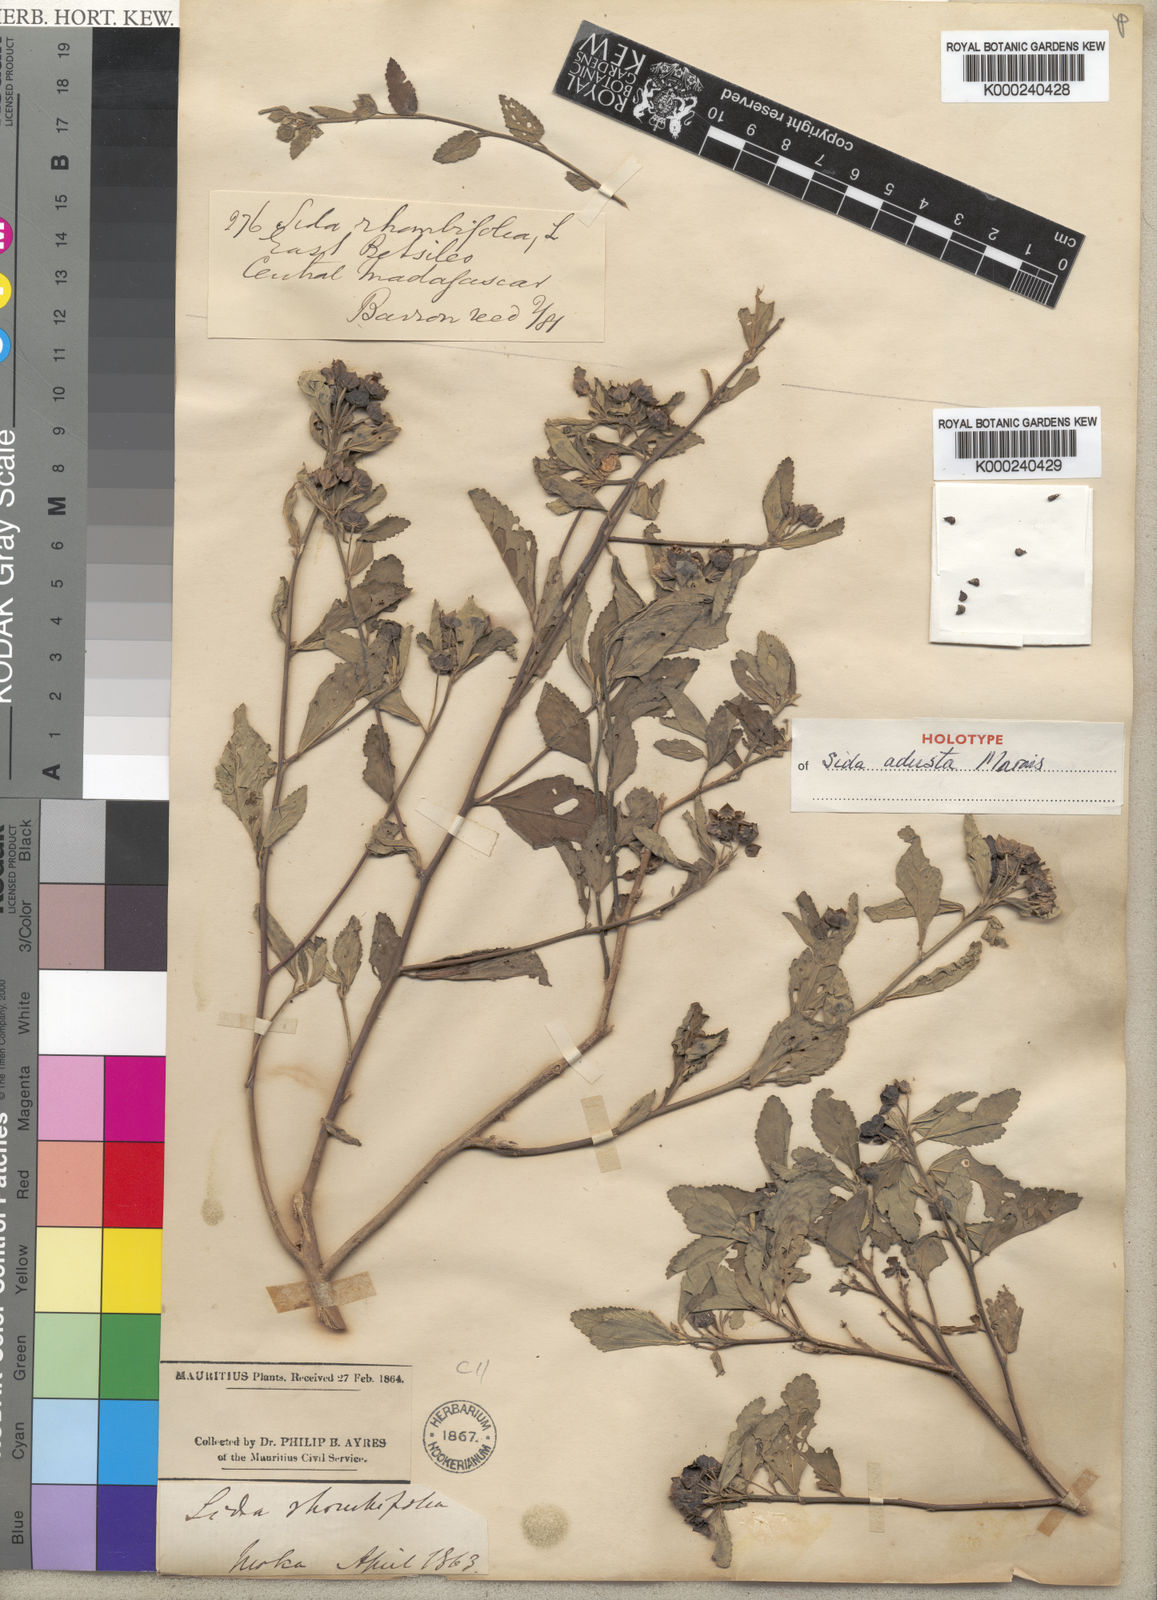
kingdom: Plantae
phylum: Tracheophyta
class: Magnoliopsida
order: Malvales
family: Malvaceae
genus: Sida
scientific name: Sida rhombifolia
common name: Queensland-hemp
